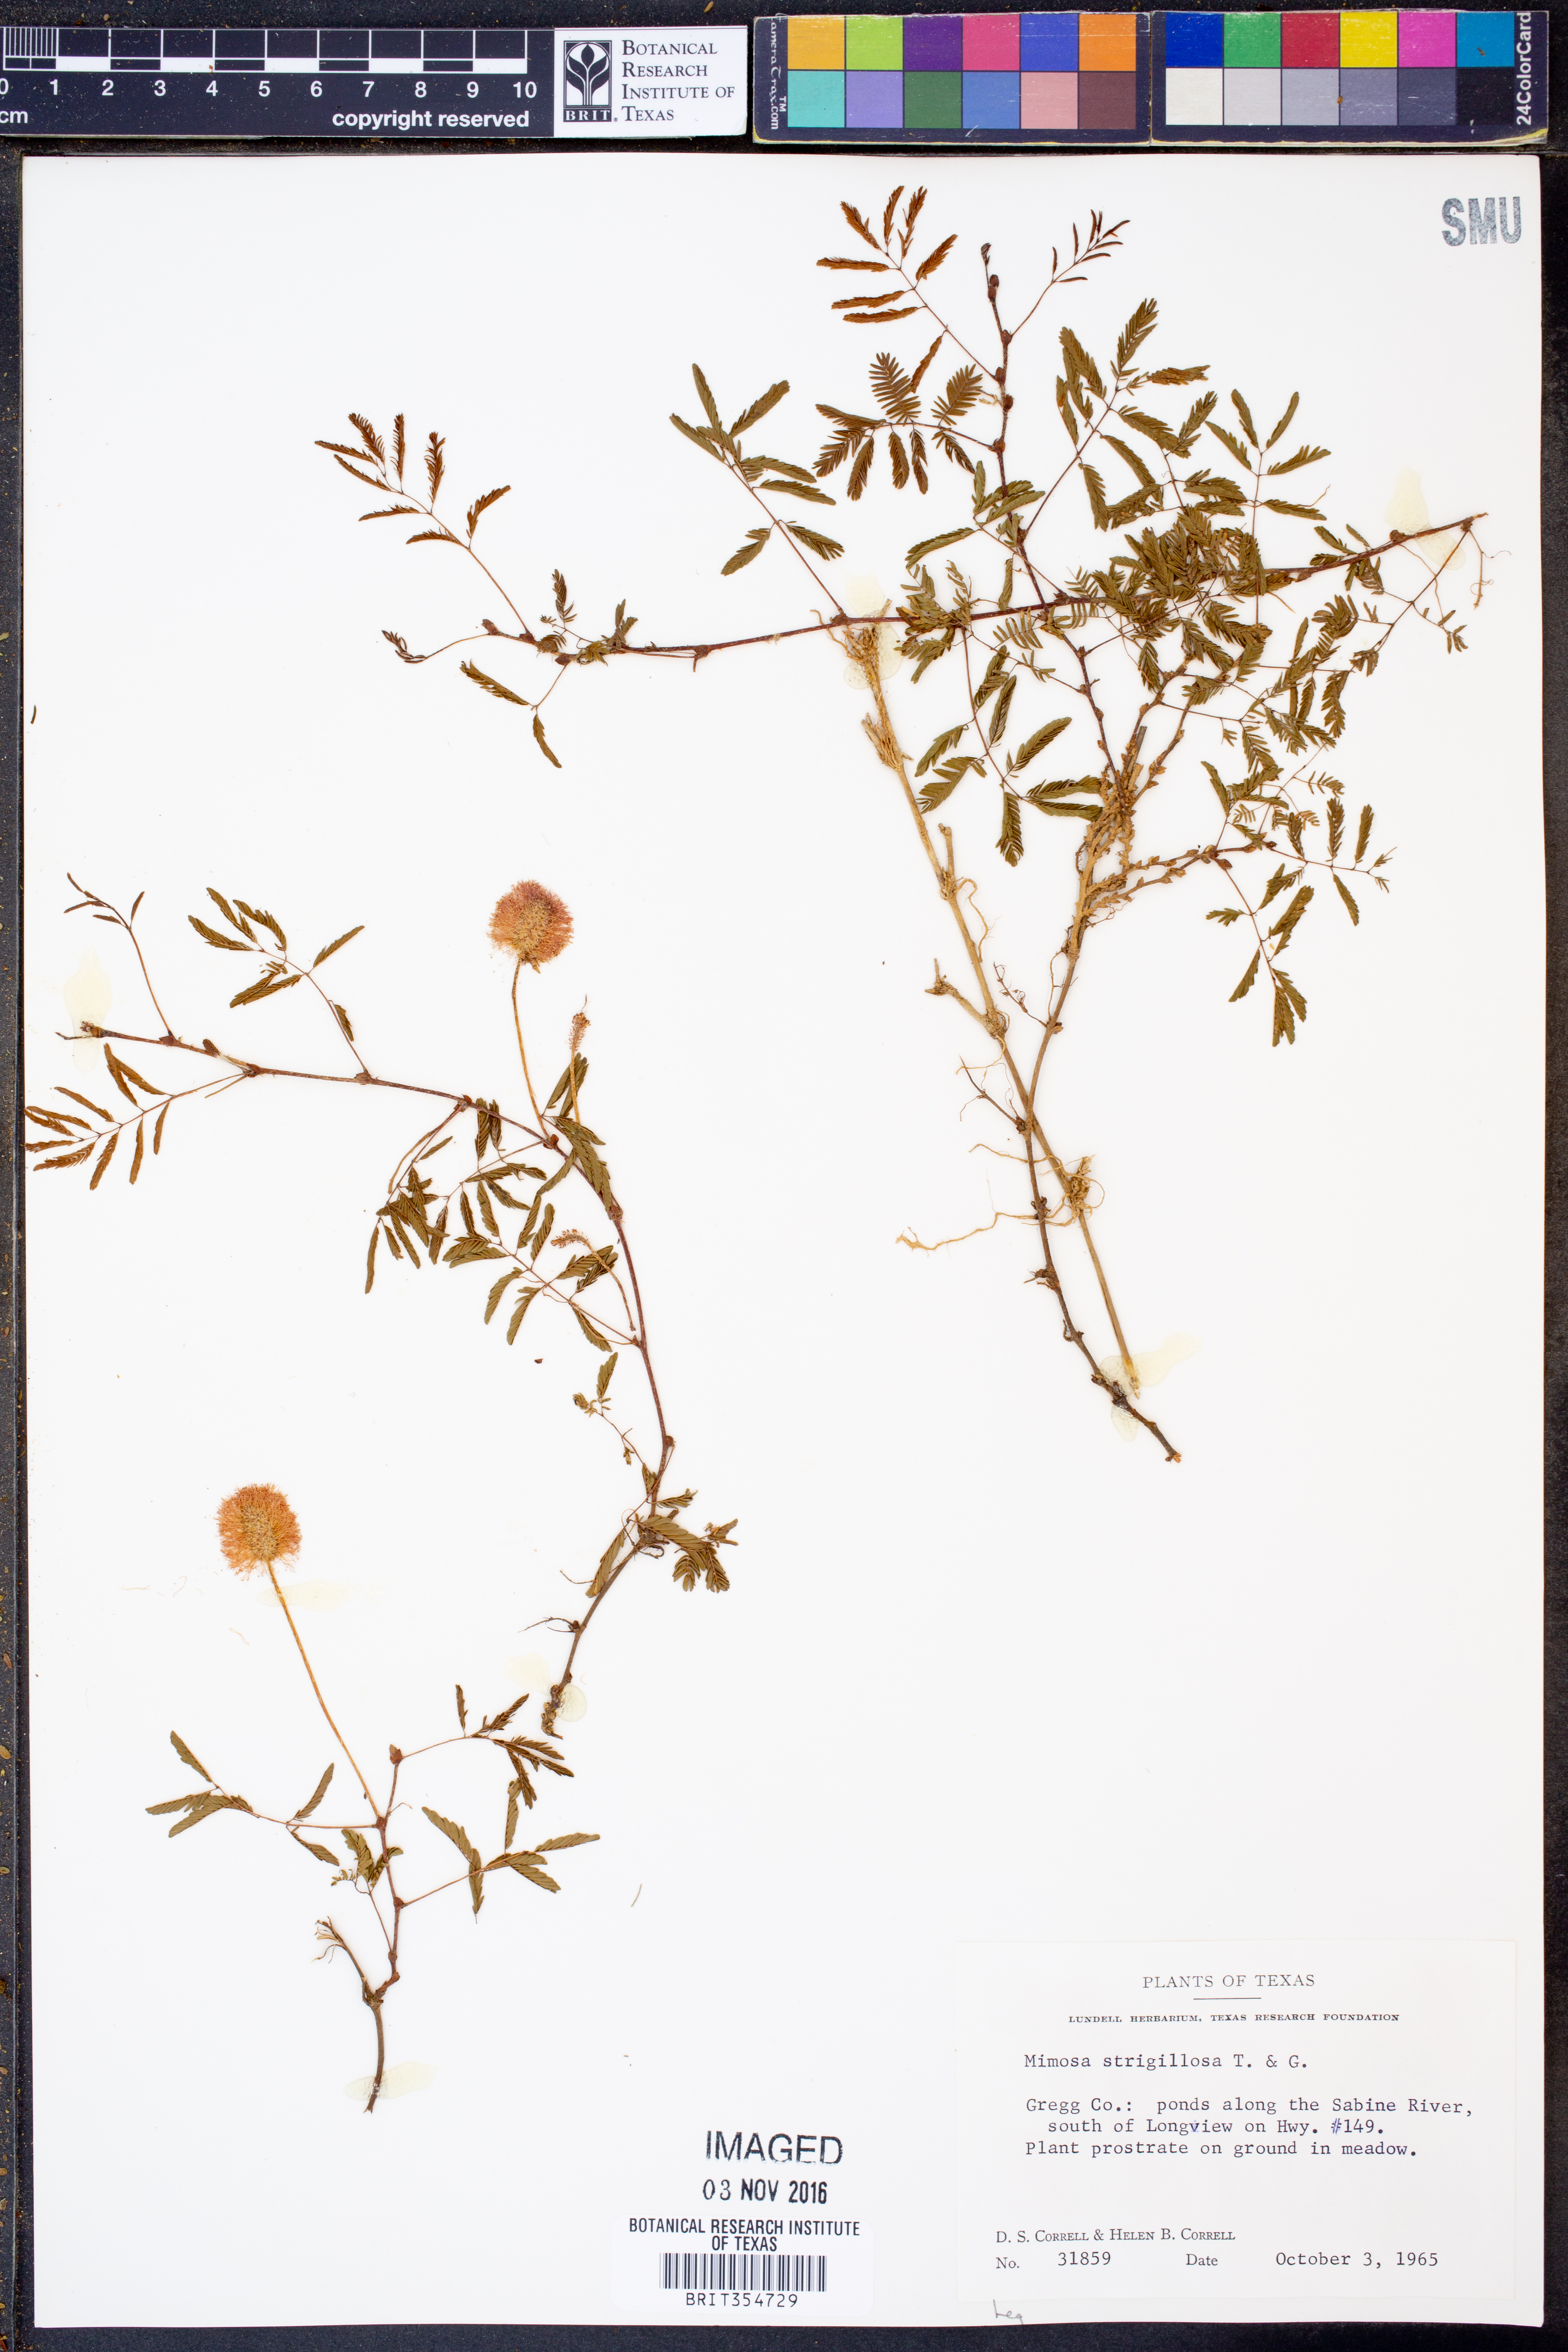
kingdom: Plantae
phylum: Tracheophyta
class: Magnoliopsida
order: Fabales
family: Fabaceae
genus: Mimosa
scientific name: Mimosa strigillosa
